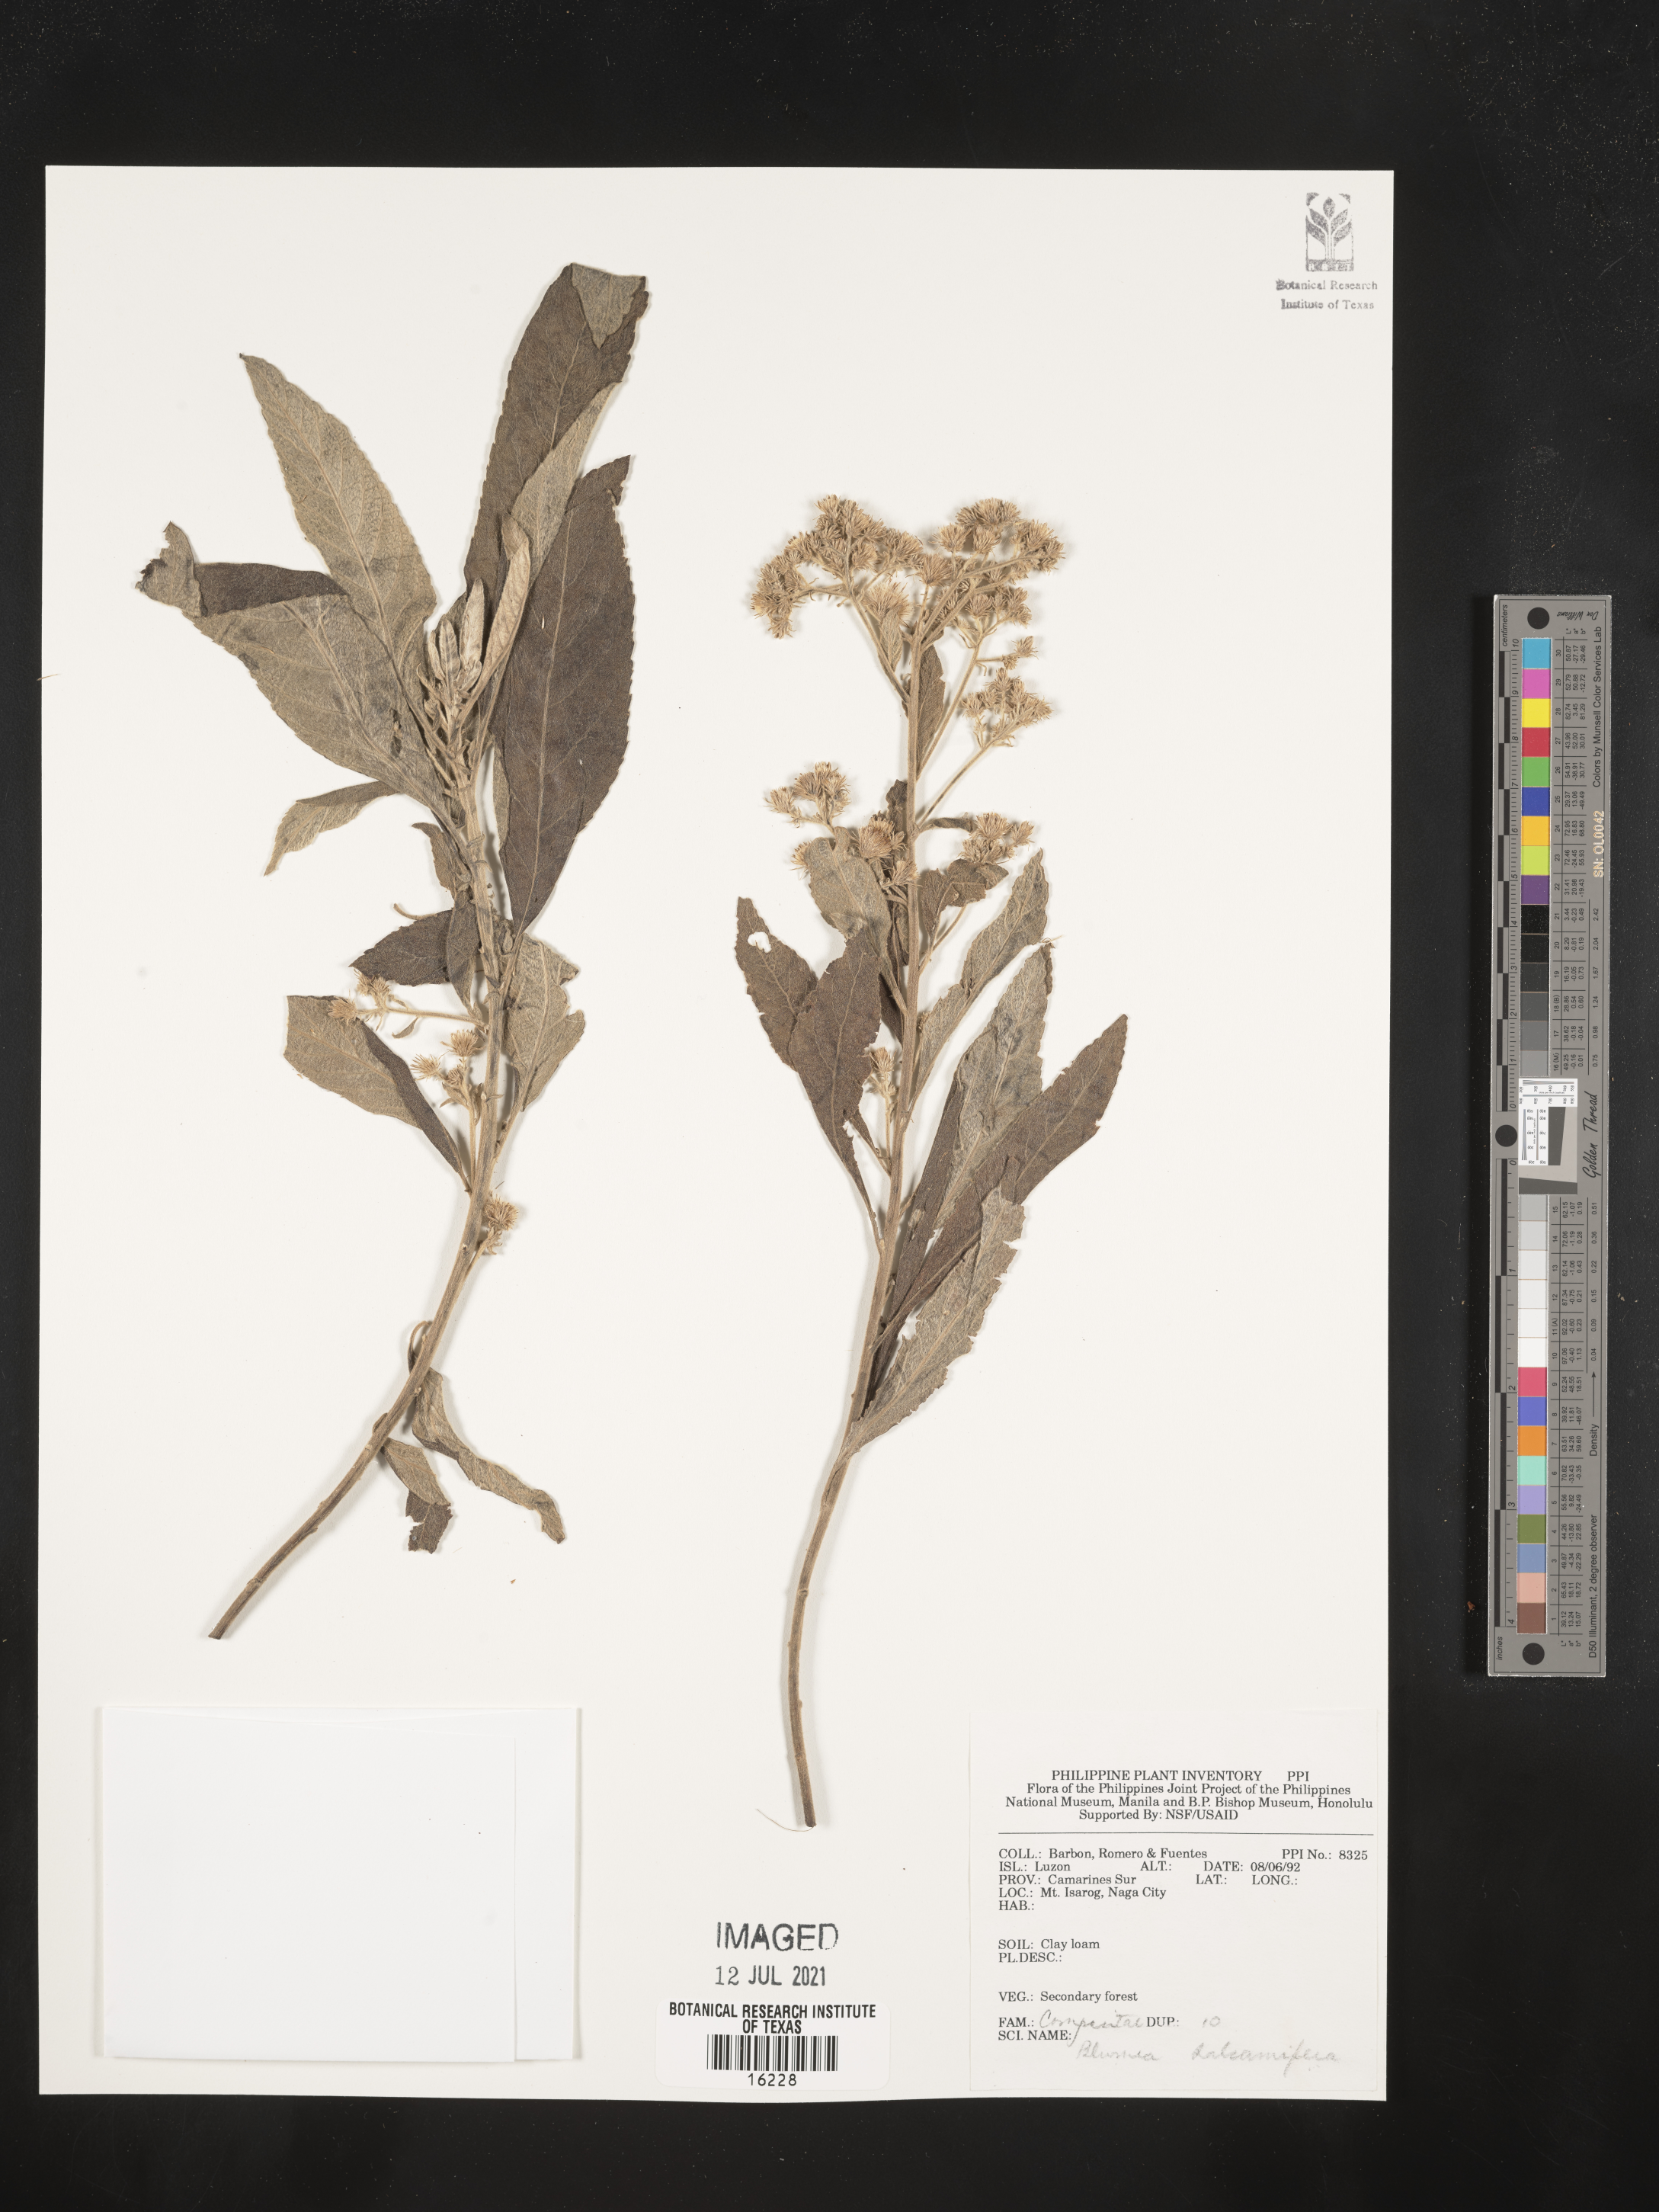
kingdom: Plantae
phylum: Tracheophyta
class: Magnoliopsida
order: Asterales
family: Asteraceae
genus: Blumea
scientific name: Blumea balsamifera
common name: Ngai camphor
